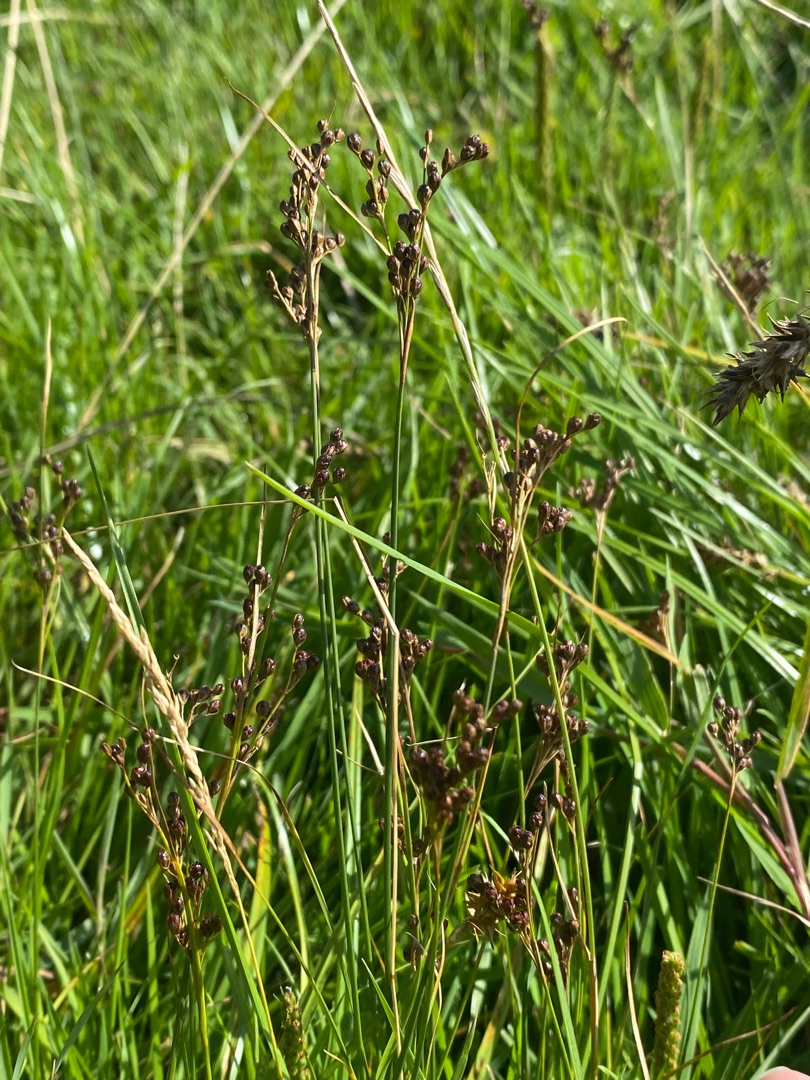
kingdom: Plantae
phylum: Tracheophyta
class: Liliopsida
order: Poales
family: Juncaceae
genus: Juncus
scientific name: Juncus compressus
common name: Fladstrået siv
